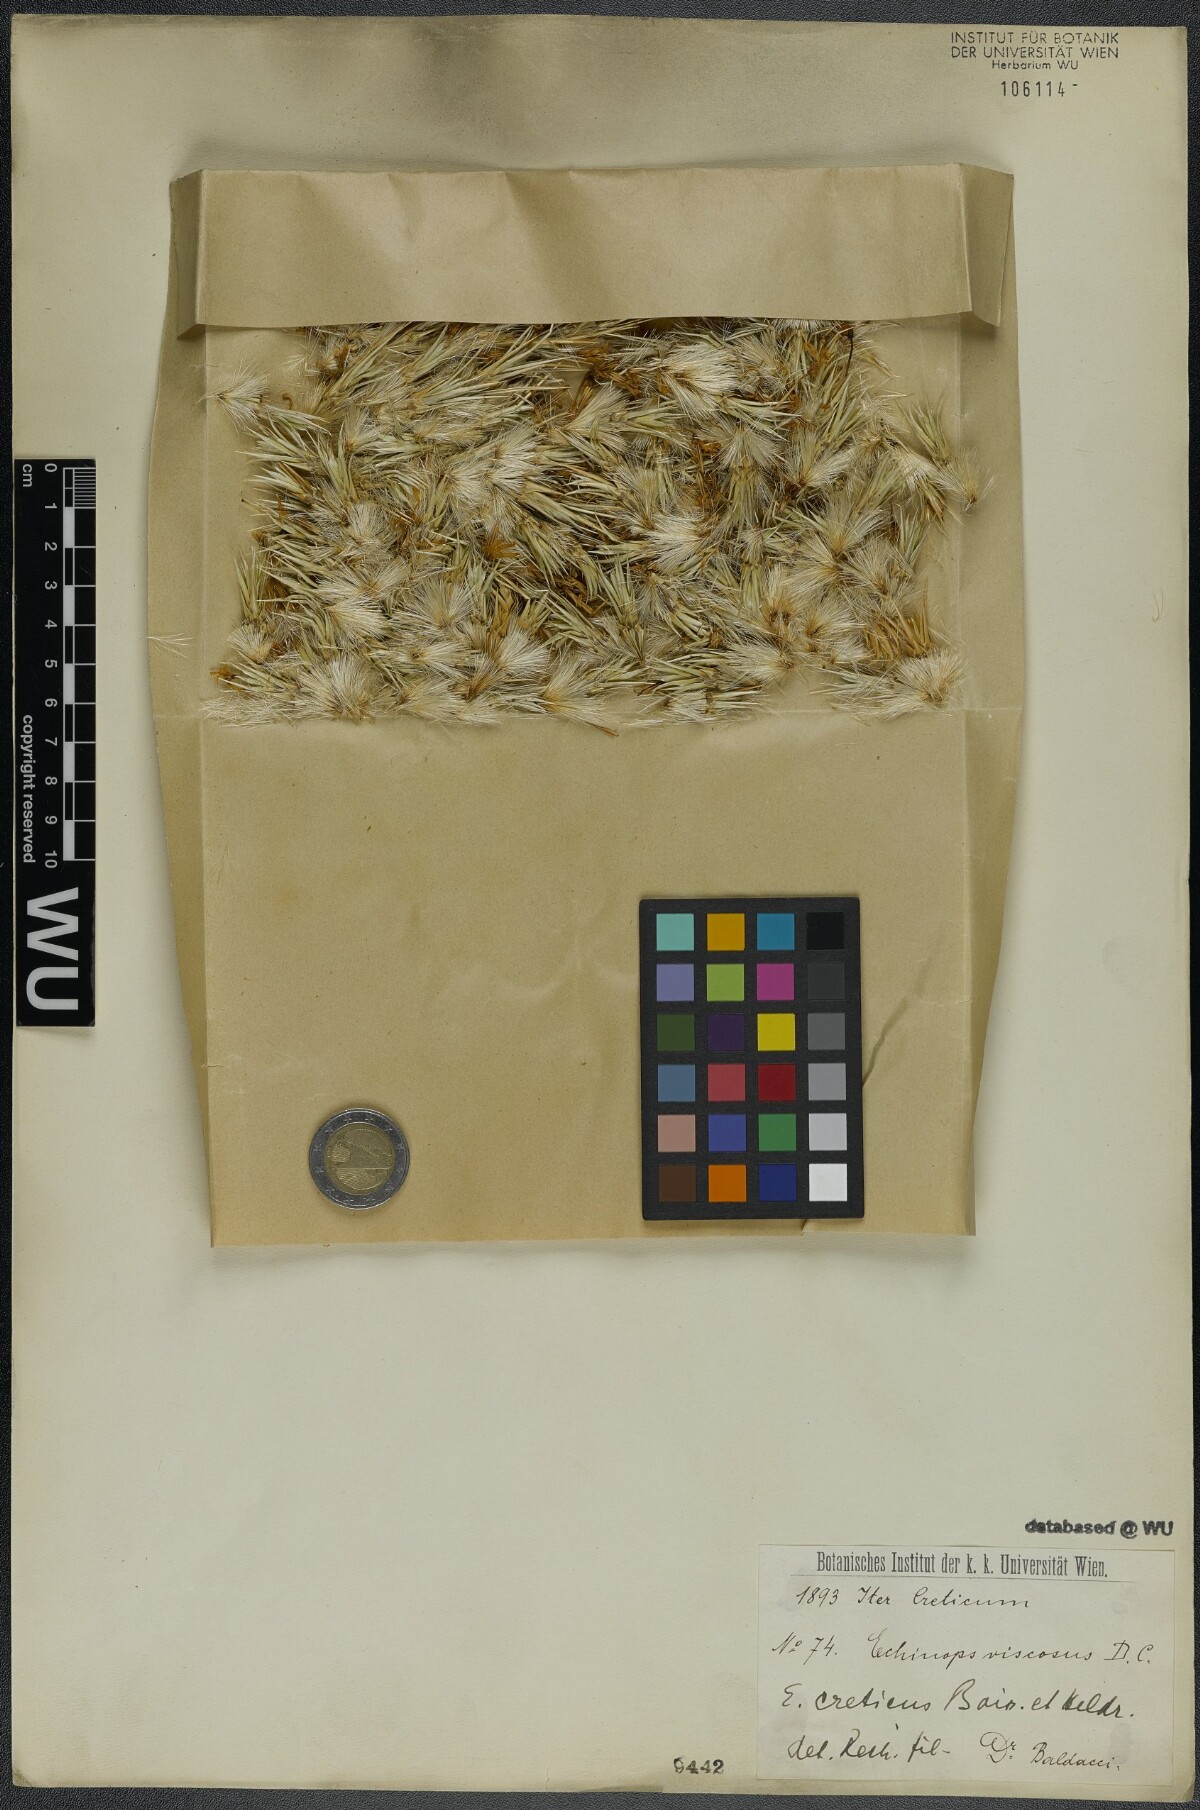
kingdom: Plantae
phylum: Tracheophyta
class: Magnoliopsida
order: Asterales
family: Asteraceae
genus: Echinops
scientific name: Echinops spinosissimus
